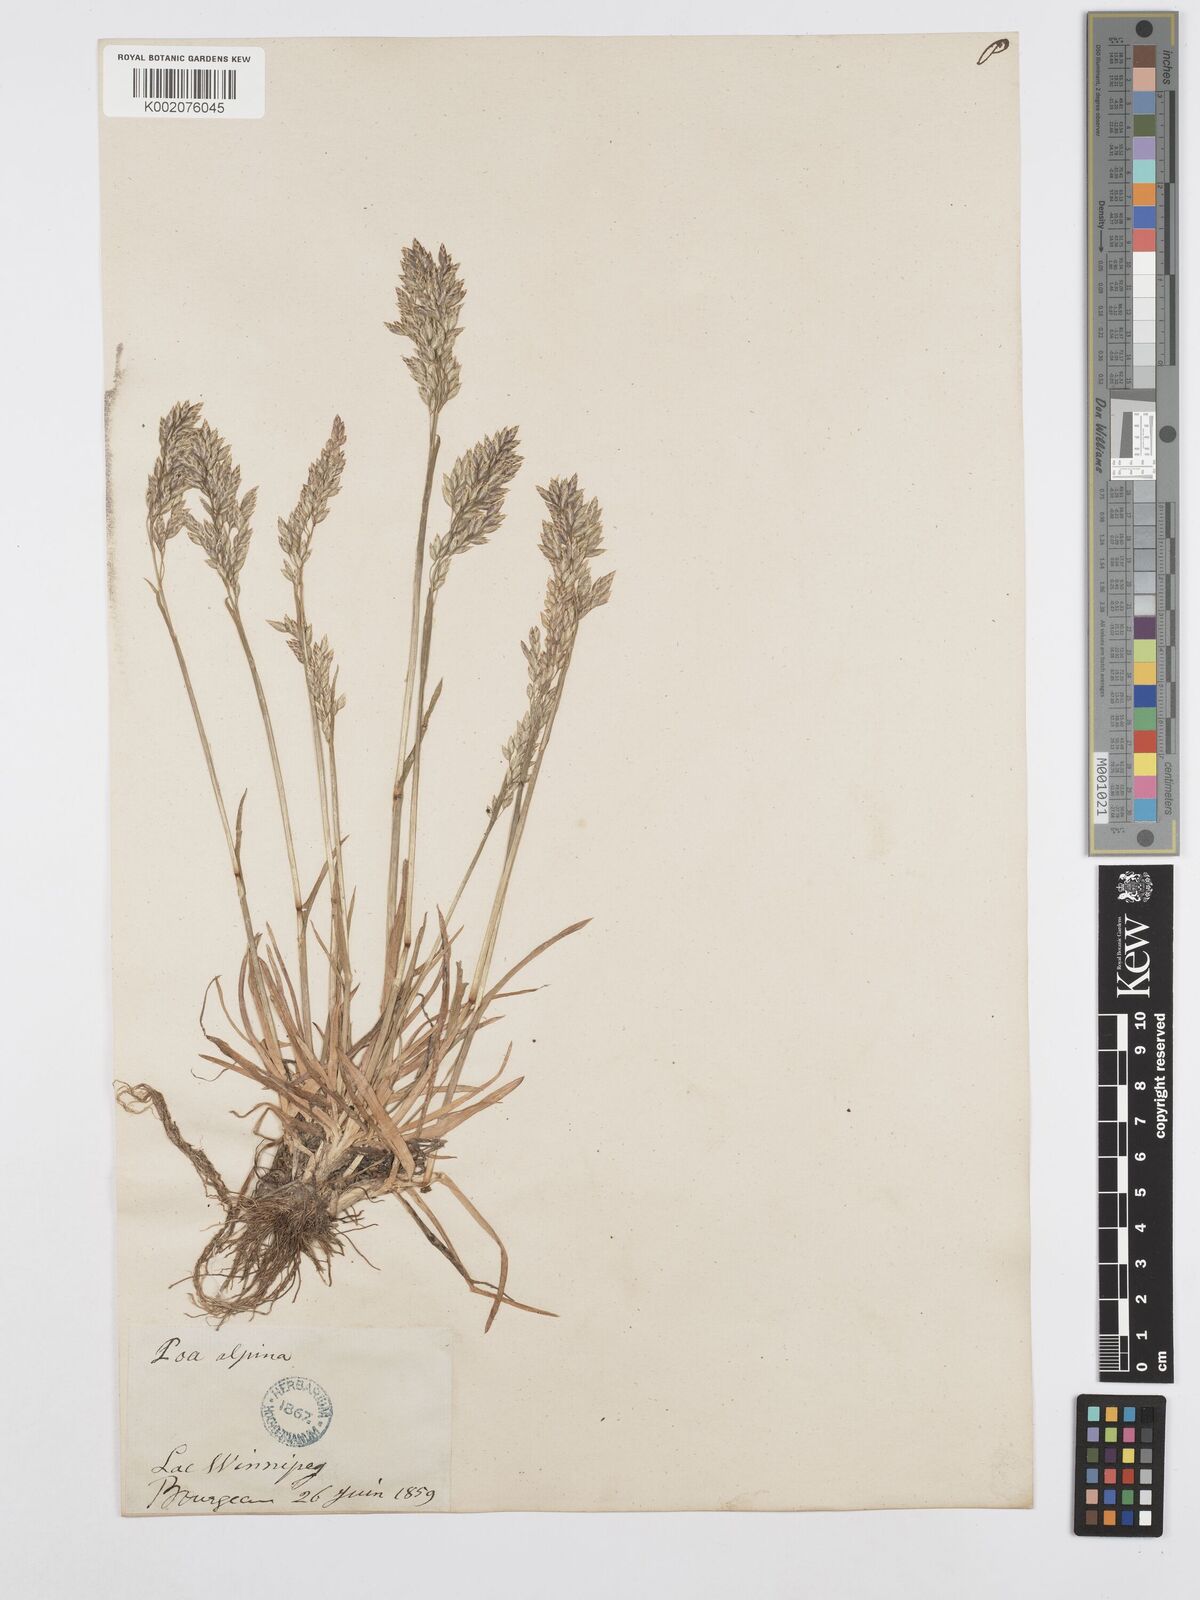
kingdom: Plantae
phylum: Tracheophyta
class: Liliopsida
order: Poales
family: Poaceae
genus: Poa
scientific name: Poa alpina
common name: Alpine bluegrass
